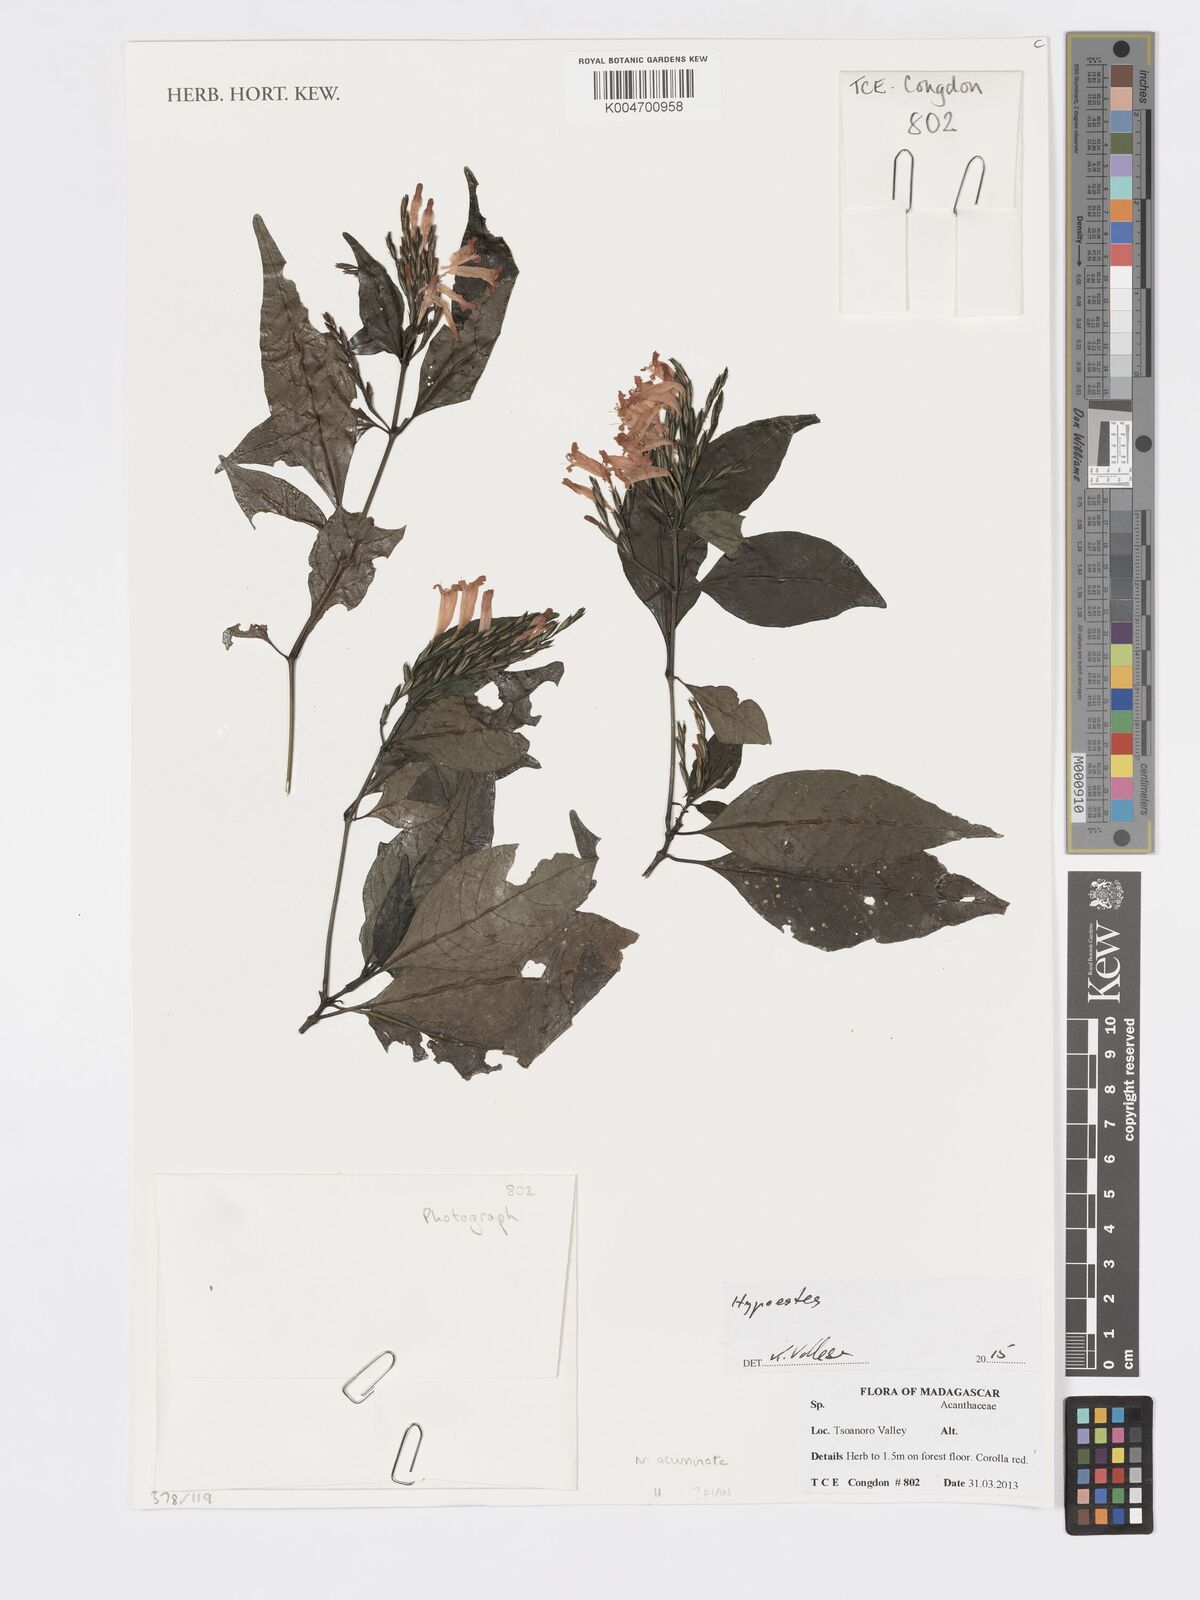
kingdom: Plantae
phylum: Tracheophyta
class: Magnoliopsida
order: Lamiales
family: Acanthaceae
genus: Hypoestes
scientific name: Hypoestes
